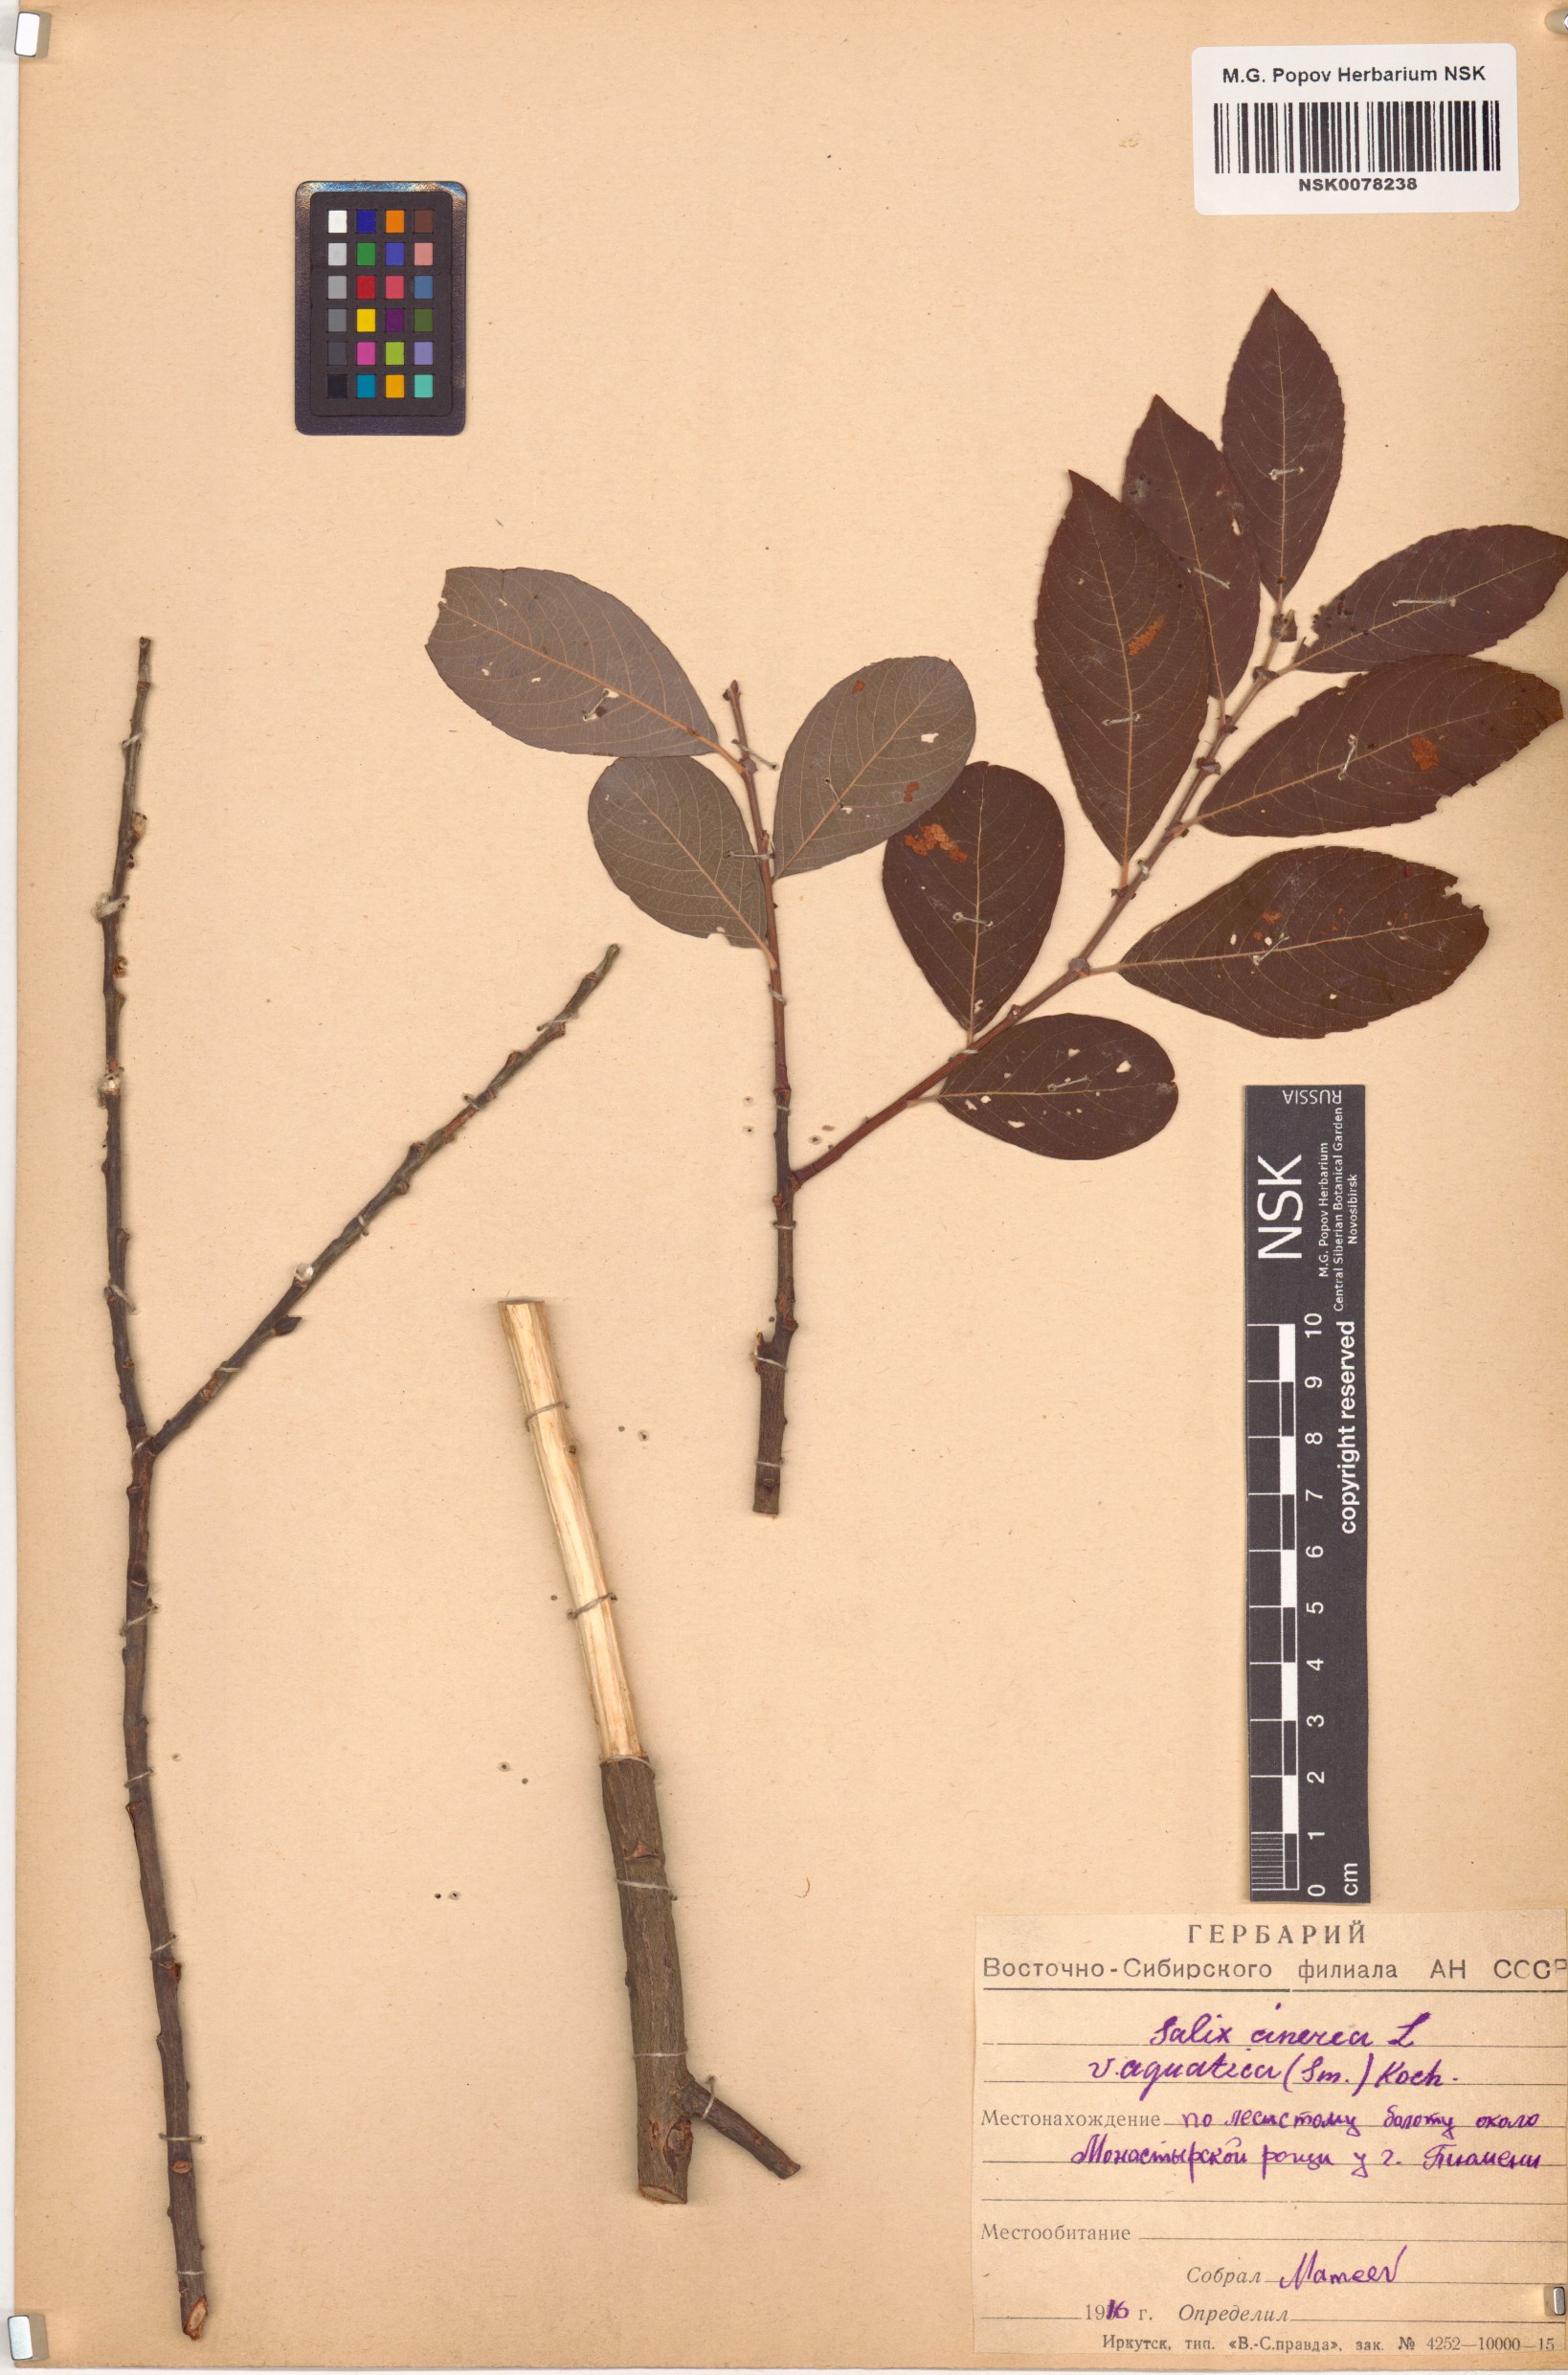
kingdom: Plantae
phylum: Tracheophyta
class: Magnoliopsida
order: Malpighiales
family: Salicaceae
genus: Salix
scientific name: Salix cinerea
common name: Common sallow
